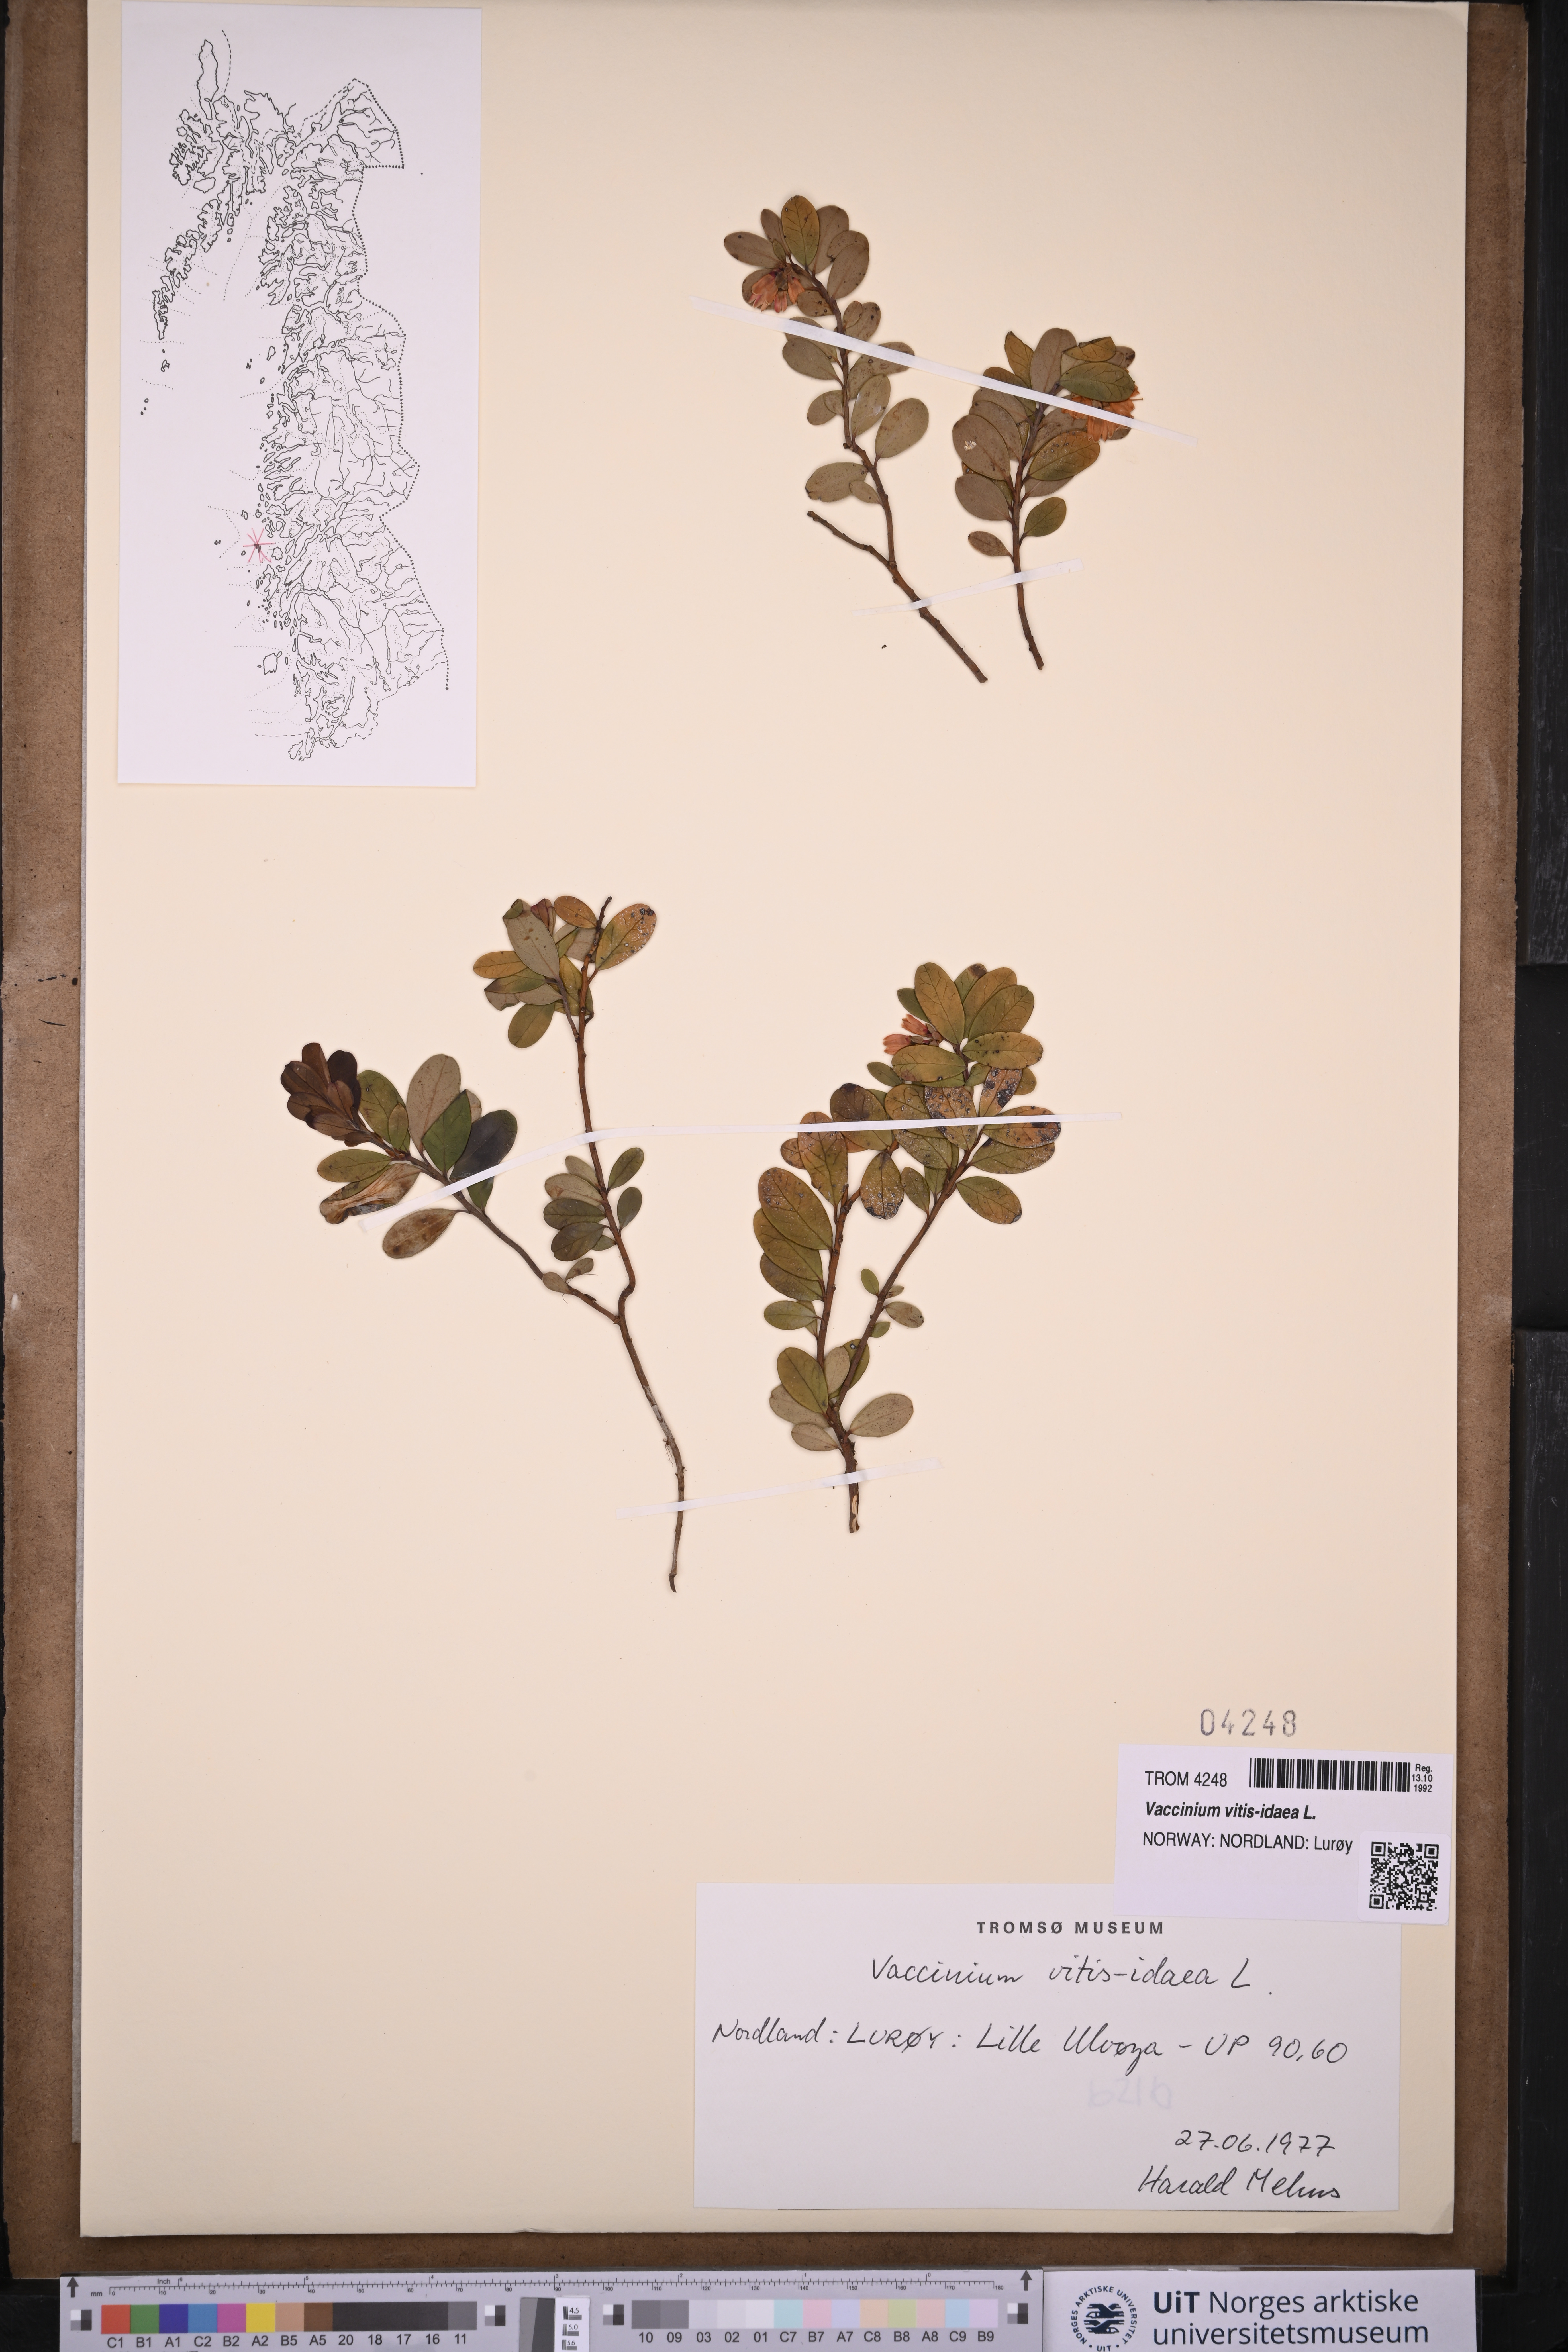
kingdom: Plantae
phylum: Tracheophyta
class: Magnoliopsida
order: Ericales
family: Ericaceae
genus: Vaccinium
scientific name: Vaccinium vitis-idaea
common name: Cowberry
